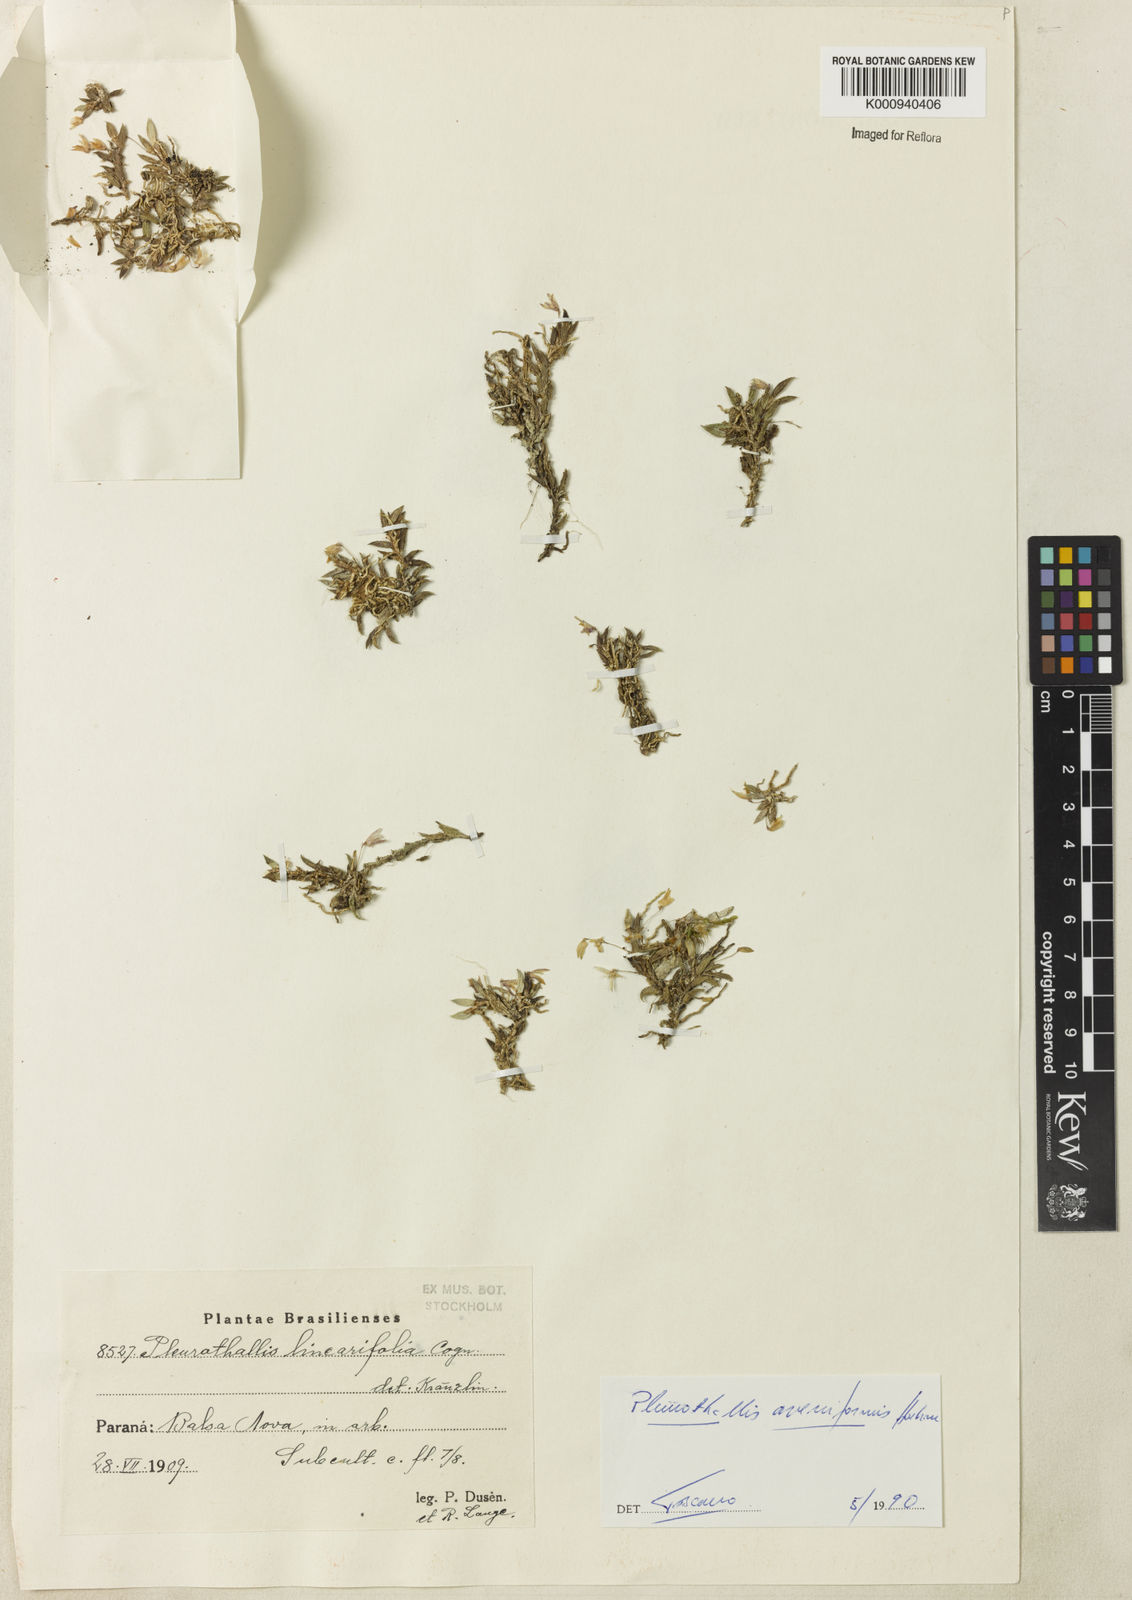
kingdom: Plantae
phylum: Tracheophyta
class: Liliopsida
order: Asparagales
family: Orchidaceae
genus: Acianthera
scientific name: Acianthera
